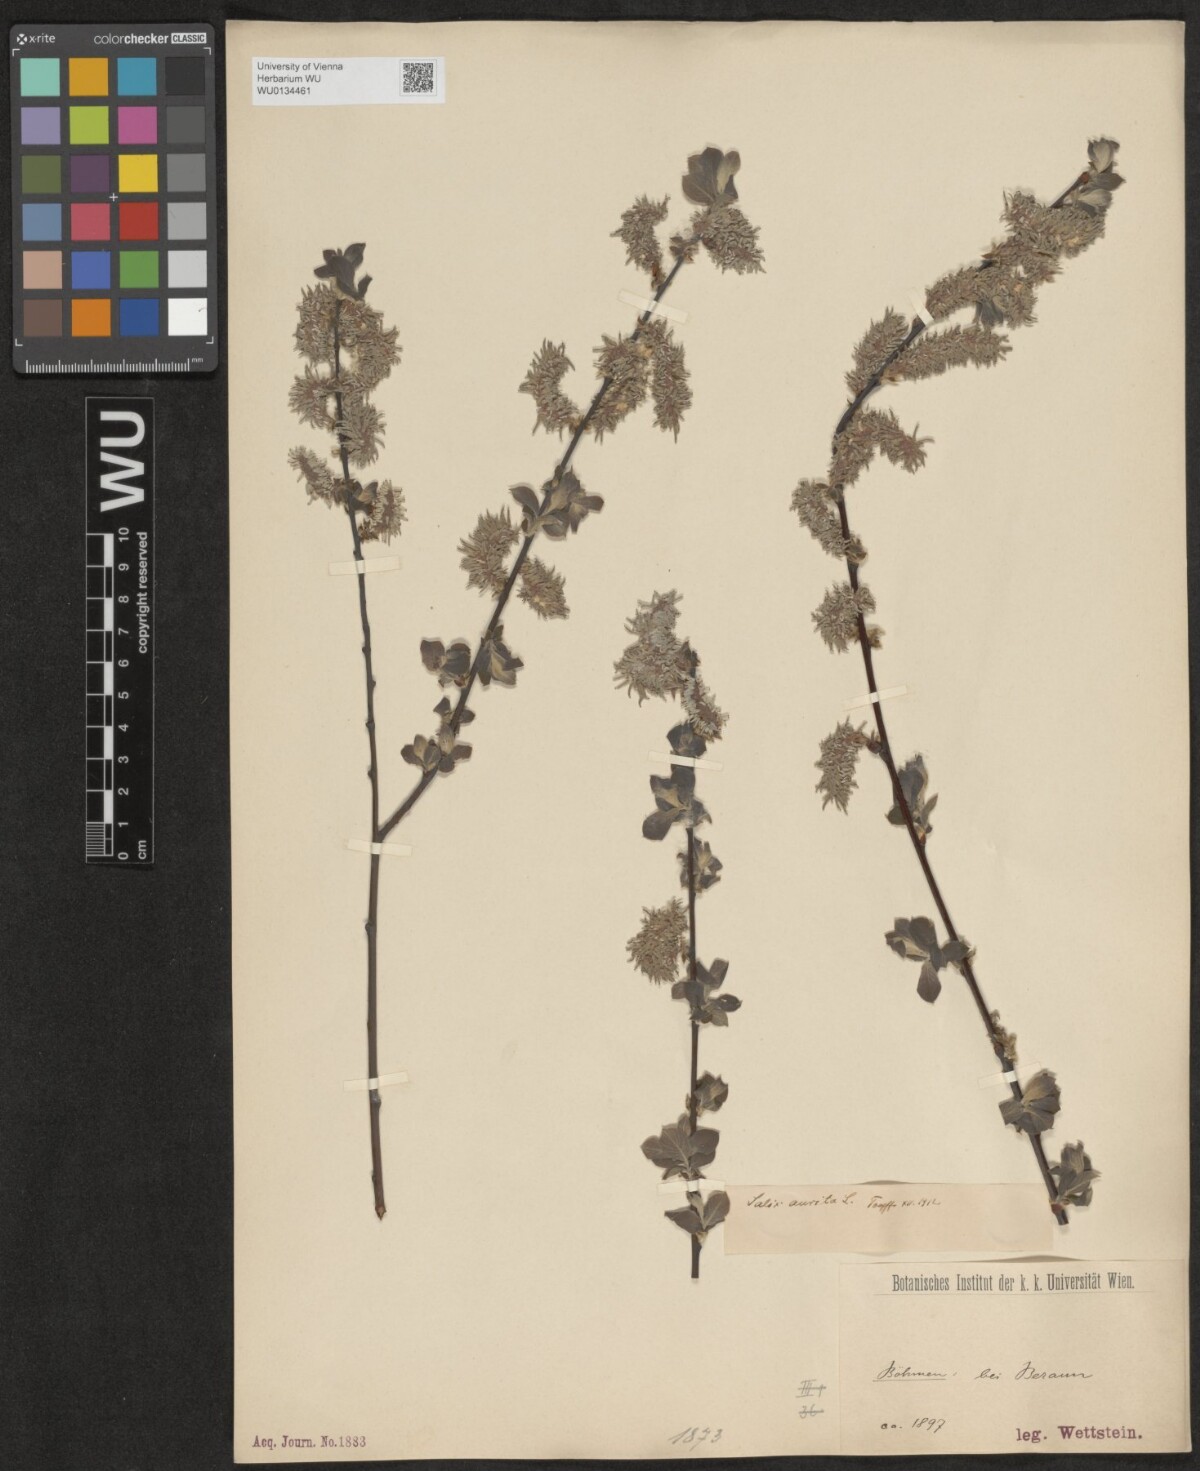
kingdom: Plantae
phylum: Tracheophyta
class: Magnoliopsida
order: Malpighiales
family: Salicaceae
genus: Salix
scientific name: Salix aurita
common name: Eared willow
